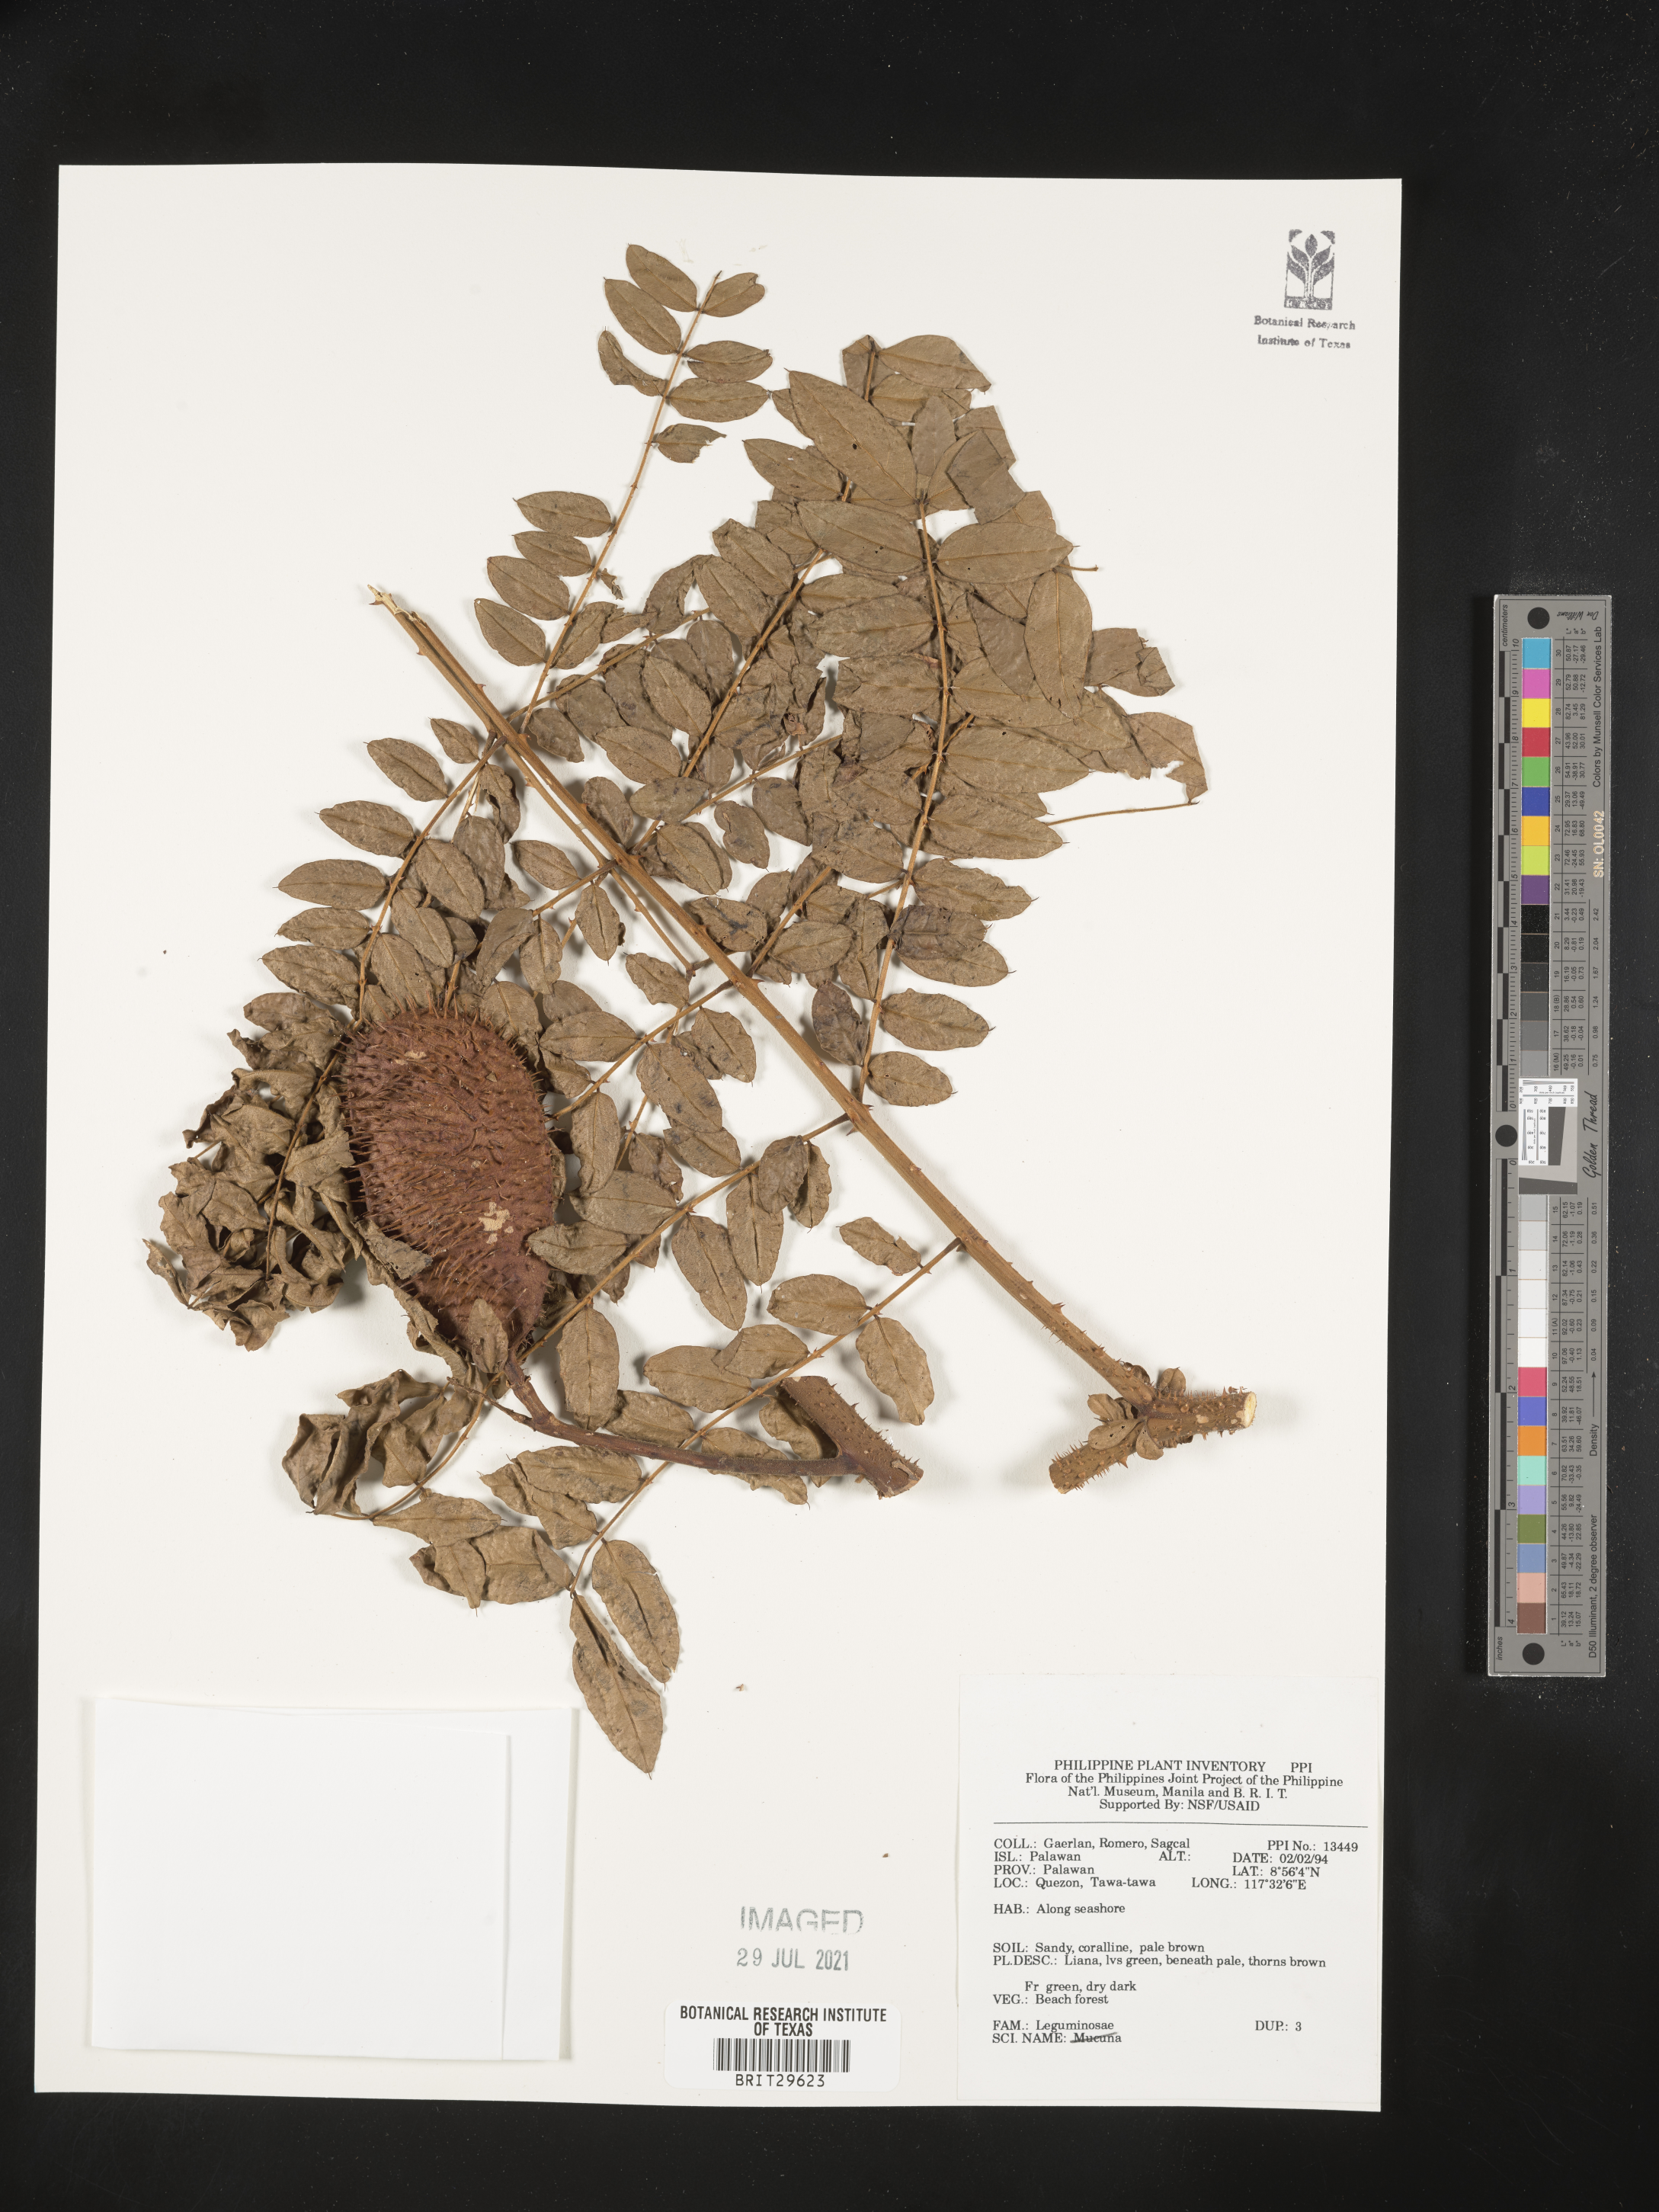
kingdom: Plantae
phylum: Tracheophyta
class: Magnoliopsida
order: Fabales
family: Fabaceae
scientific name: Fabaceae
